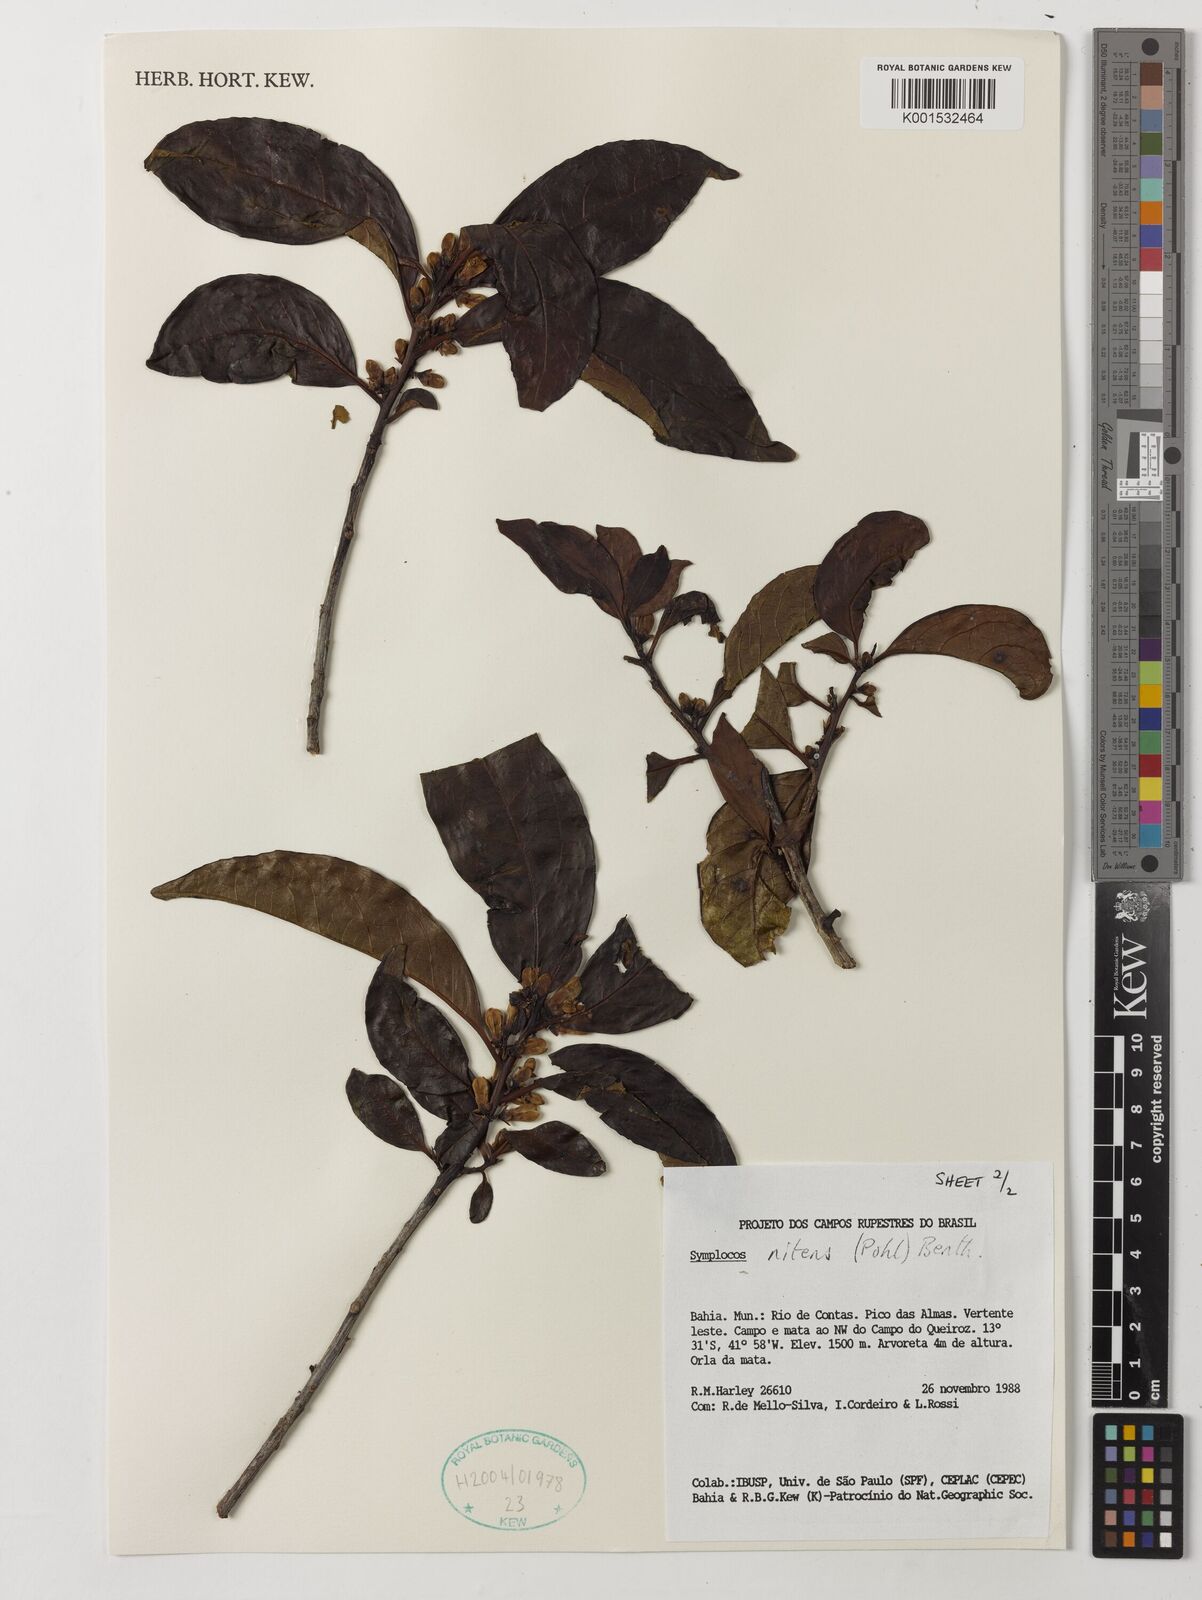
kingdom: Plantae
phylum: Tracheophyta
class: Magnoliopsida
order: Ericales
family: Symplocaceae
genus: Symplocos
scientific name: Symplocos nitens
